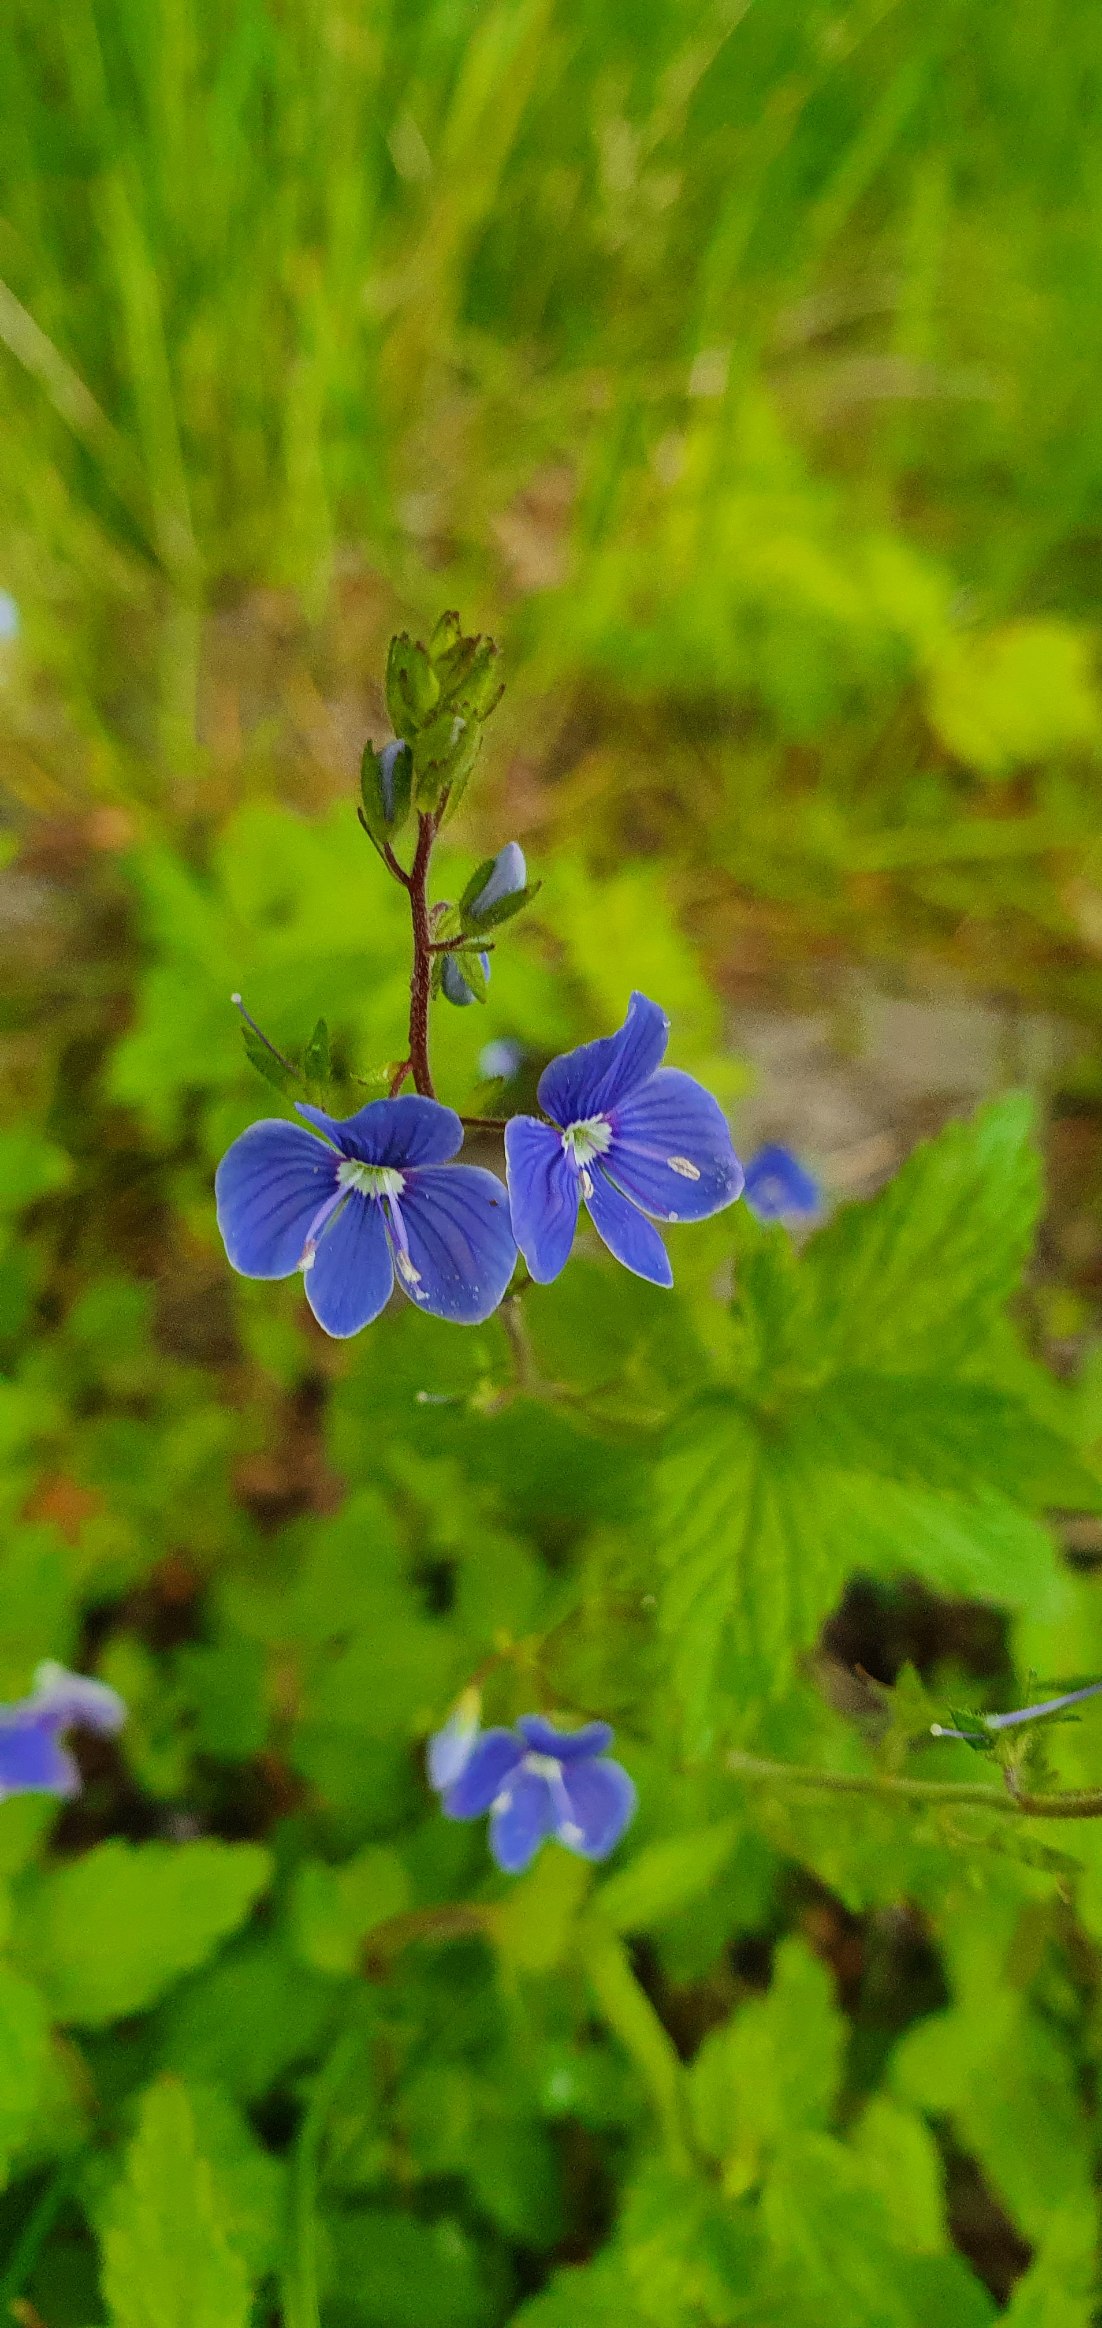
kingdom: Plantae
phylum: Tracheophyta
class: Magnoliopsida
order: Lamiales
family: Plantaginaceae
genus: Veronica
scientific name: Veronica chamaedrys
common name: Tveskægget ærenpris
